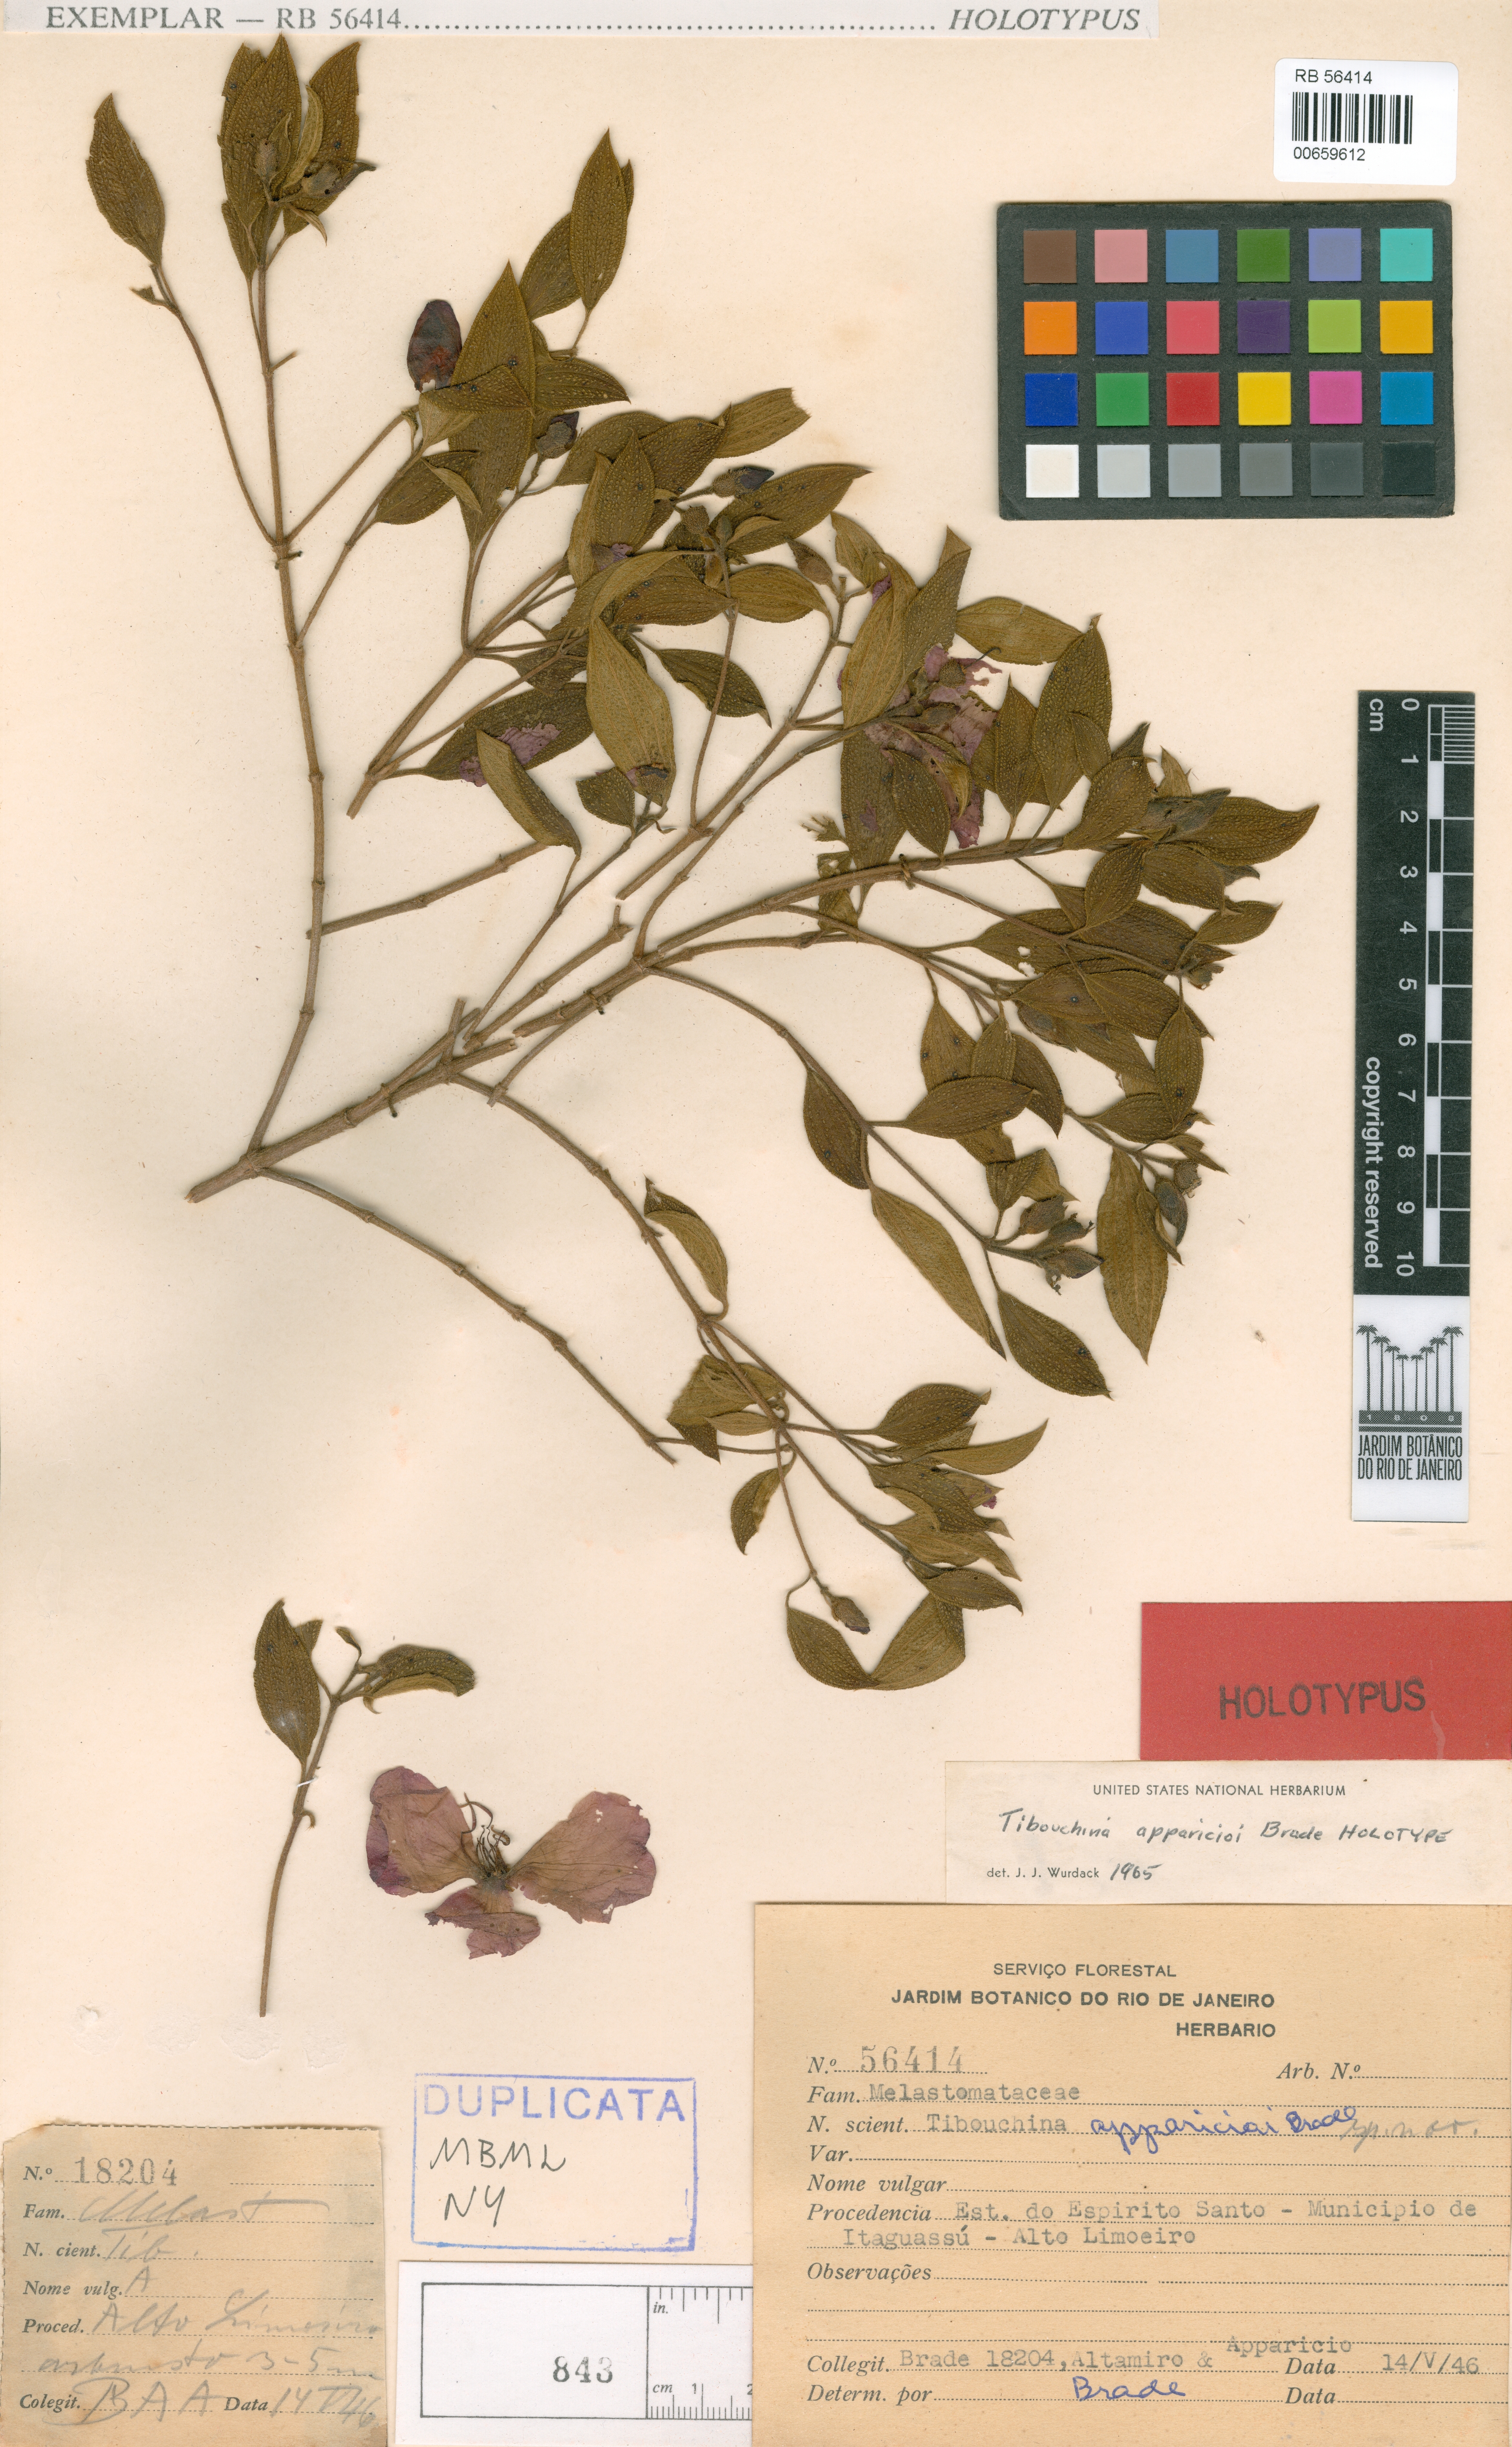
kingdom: Plantae
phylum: Tracheophyta
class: Magnoliopsida
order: Myrtales
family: Melastomataceae
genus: Pleroma
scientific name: Pleroma apparicioi
